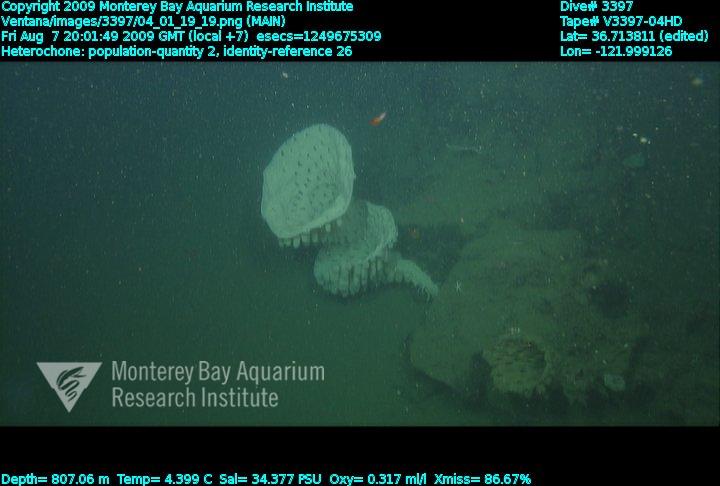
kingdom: Animalia
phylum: Porifera
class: Hexactinellida
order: Sceptrulophora
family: Aphrocallistidae
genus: Heterochone
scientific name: Heterochone
